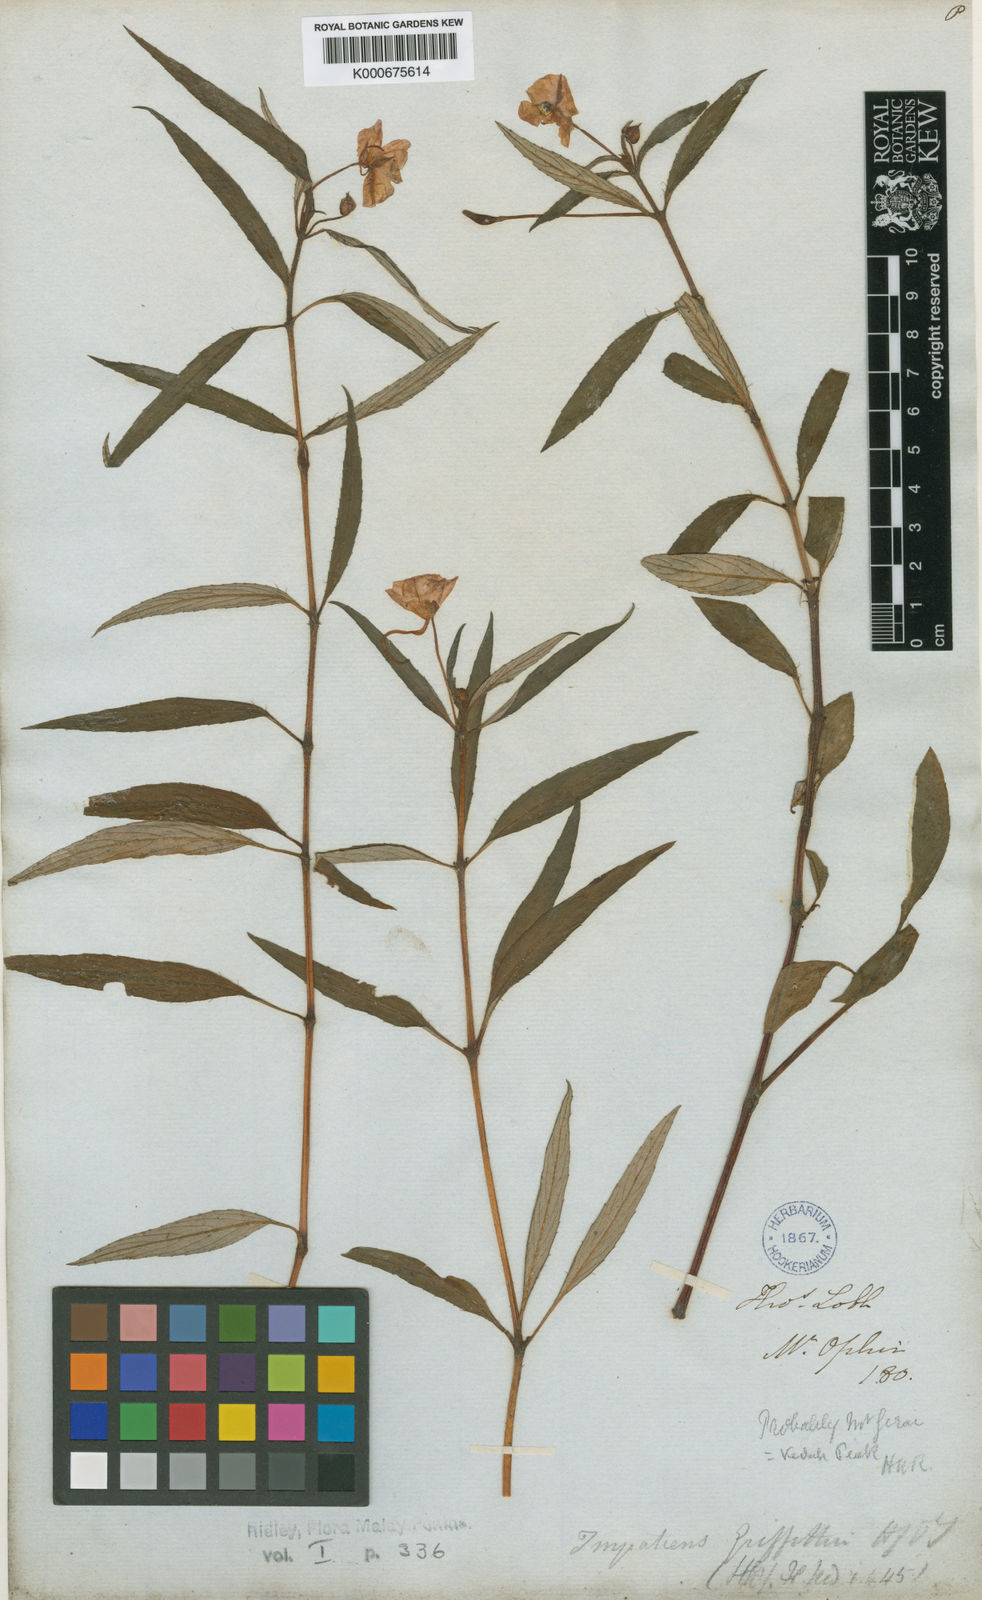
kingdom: Plantae
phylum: Tracheophyta
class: Magnoliopsida
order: Ericales
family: Balsaminaceae
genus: Impatiens
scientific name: Impatiens griffithii
